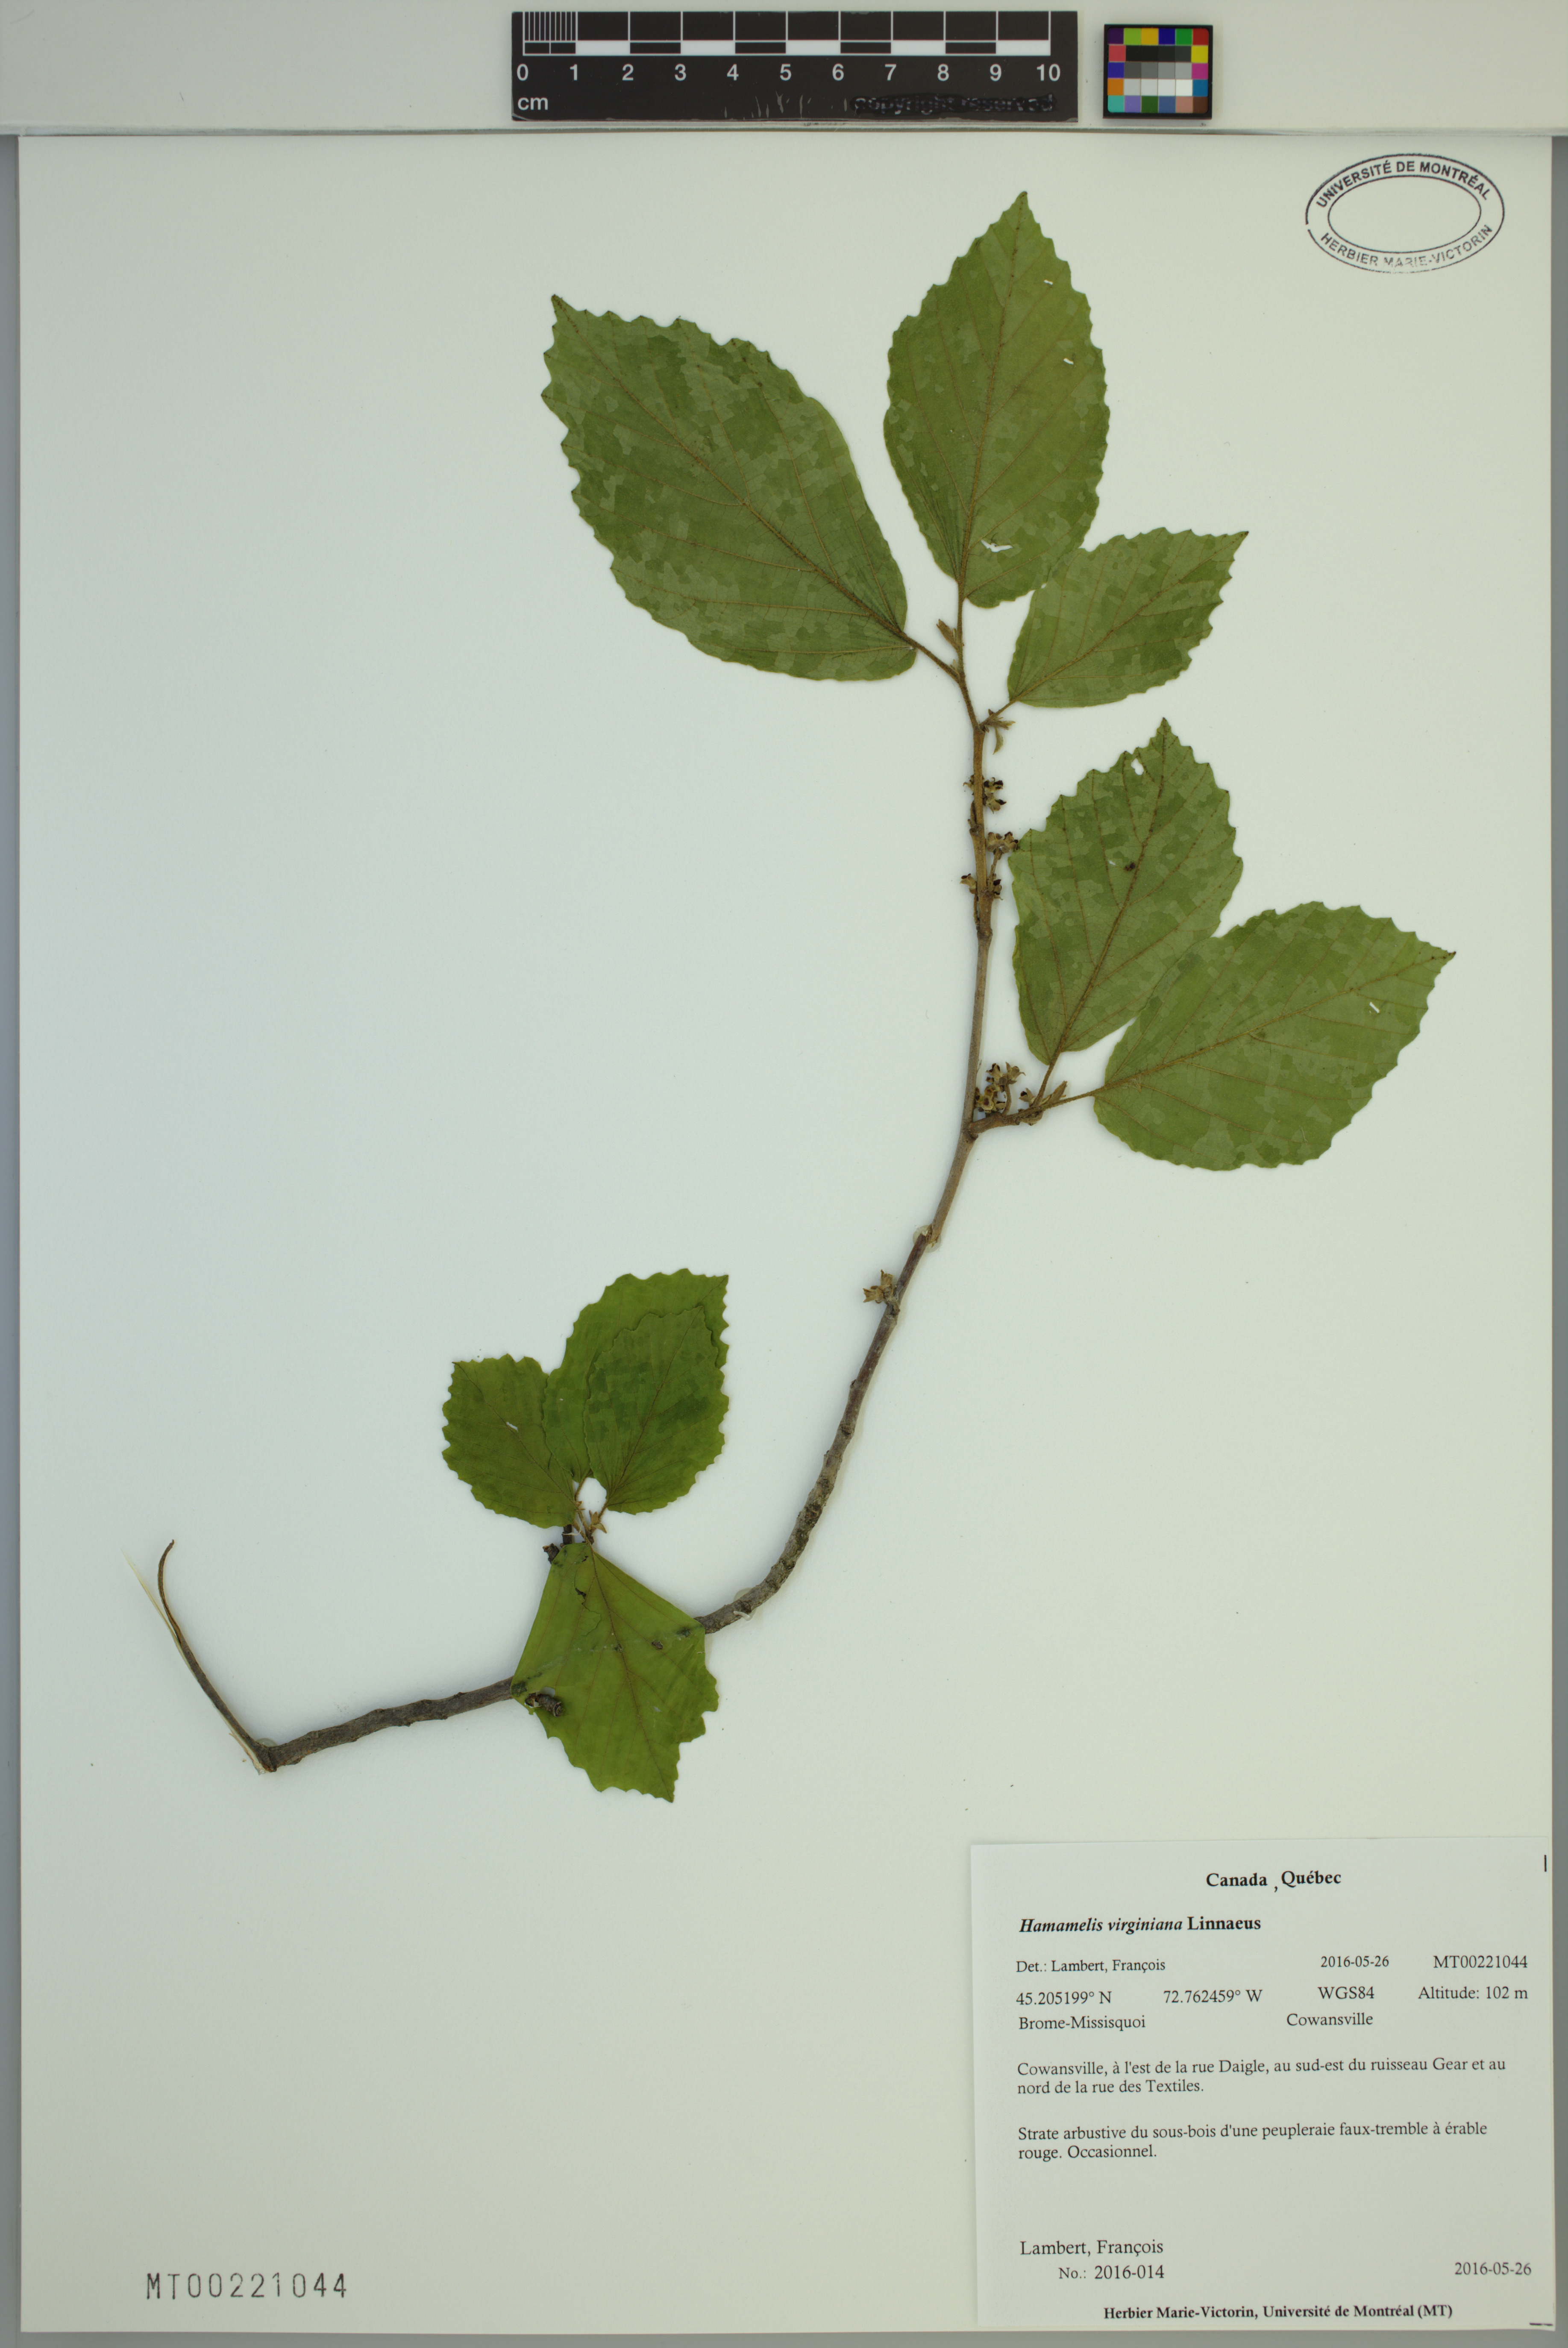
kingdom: Plantae
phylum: Tracheophyta
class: Magnoliopsida
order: Saxifragales
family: Hamamelidaceae
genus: Hamamelis
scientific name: Hamamelis virginiana
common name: Witch-hazel
